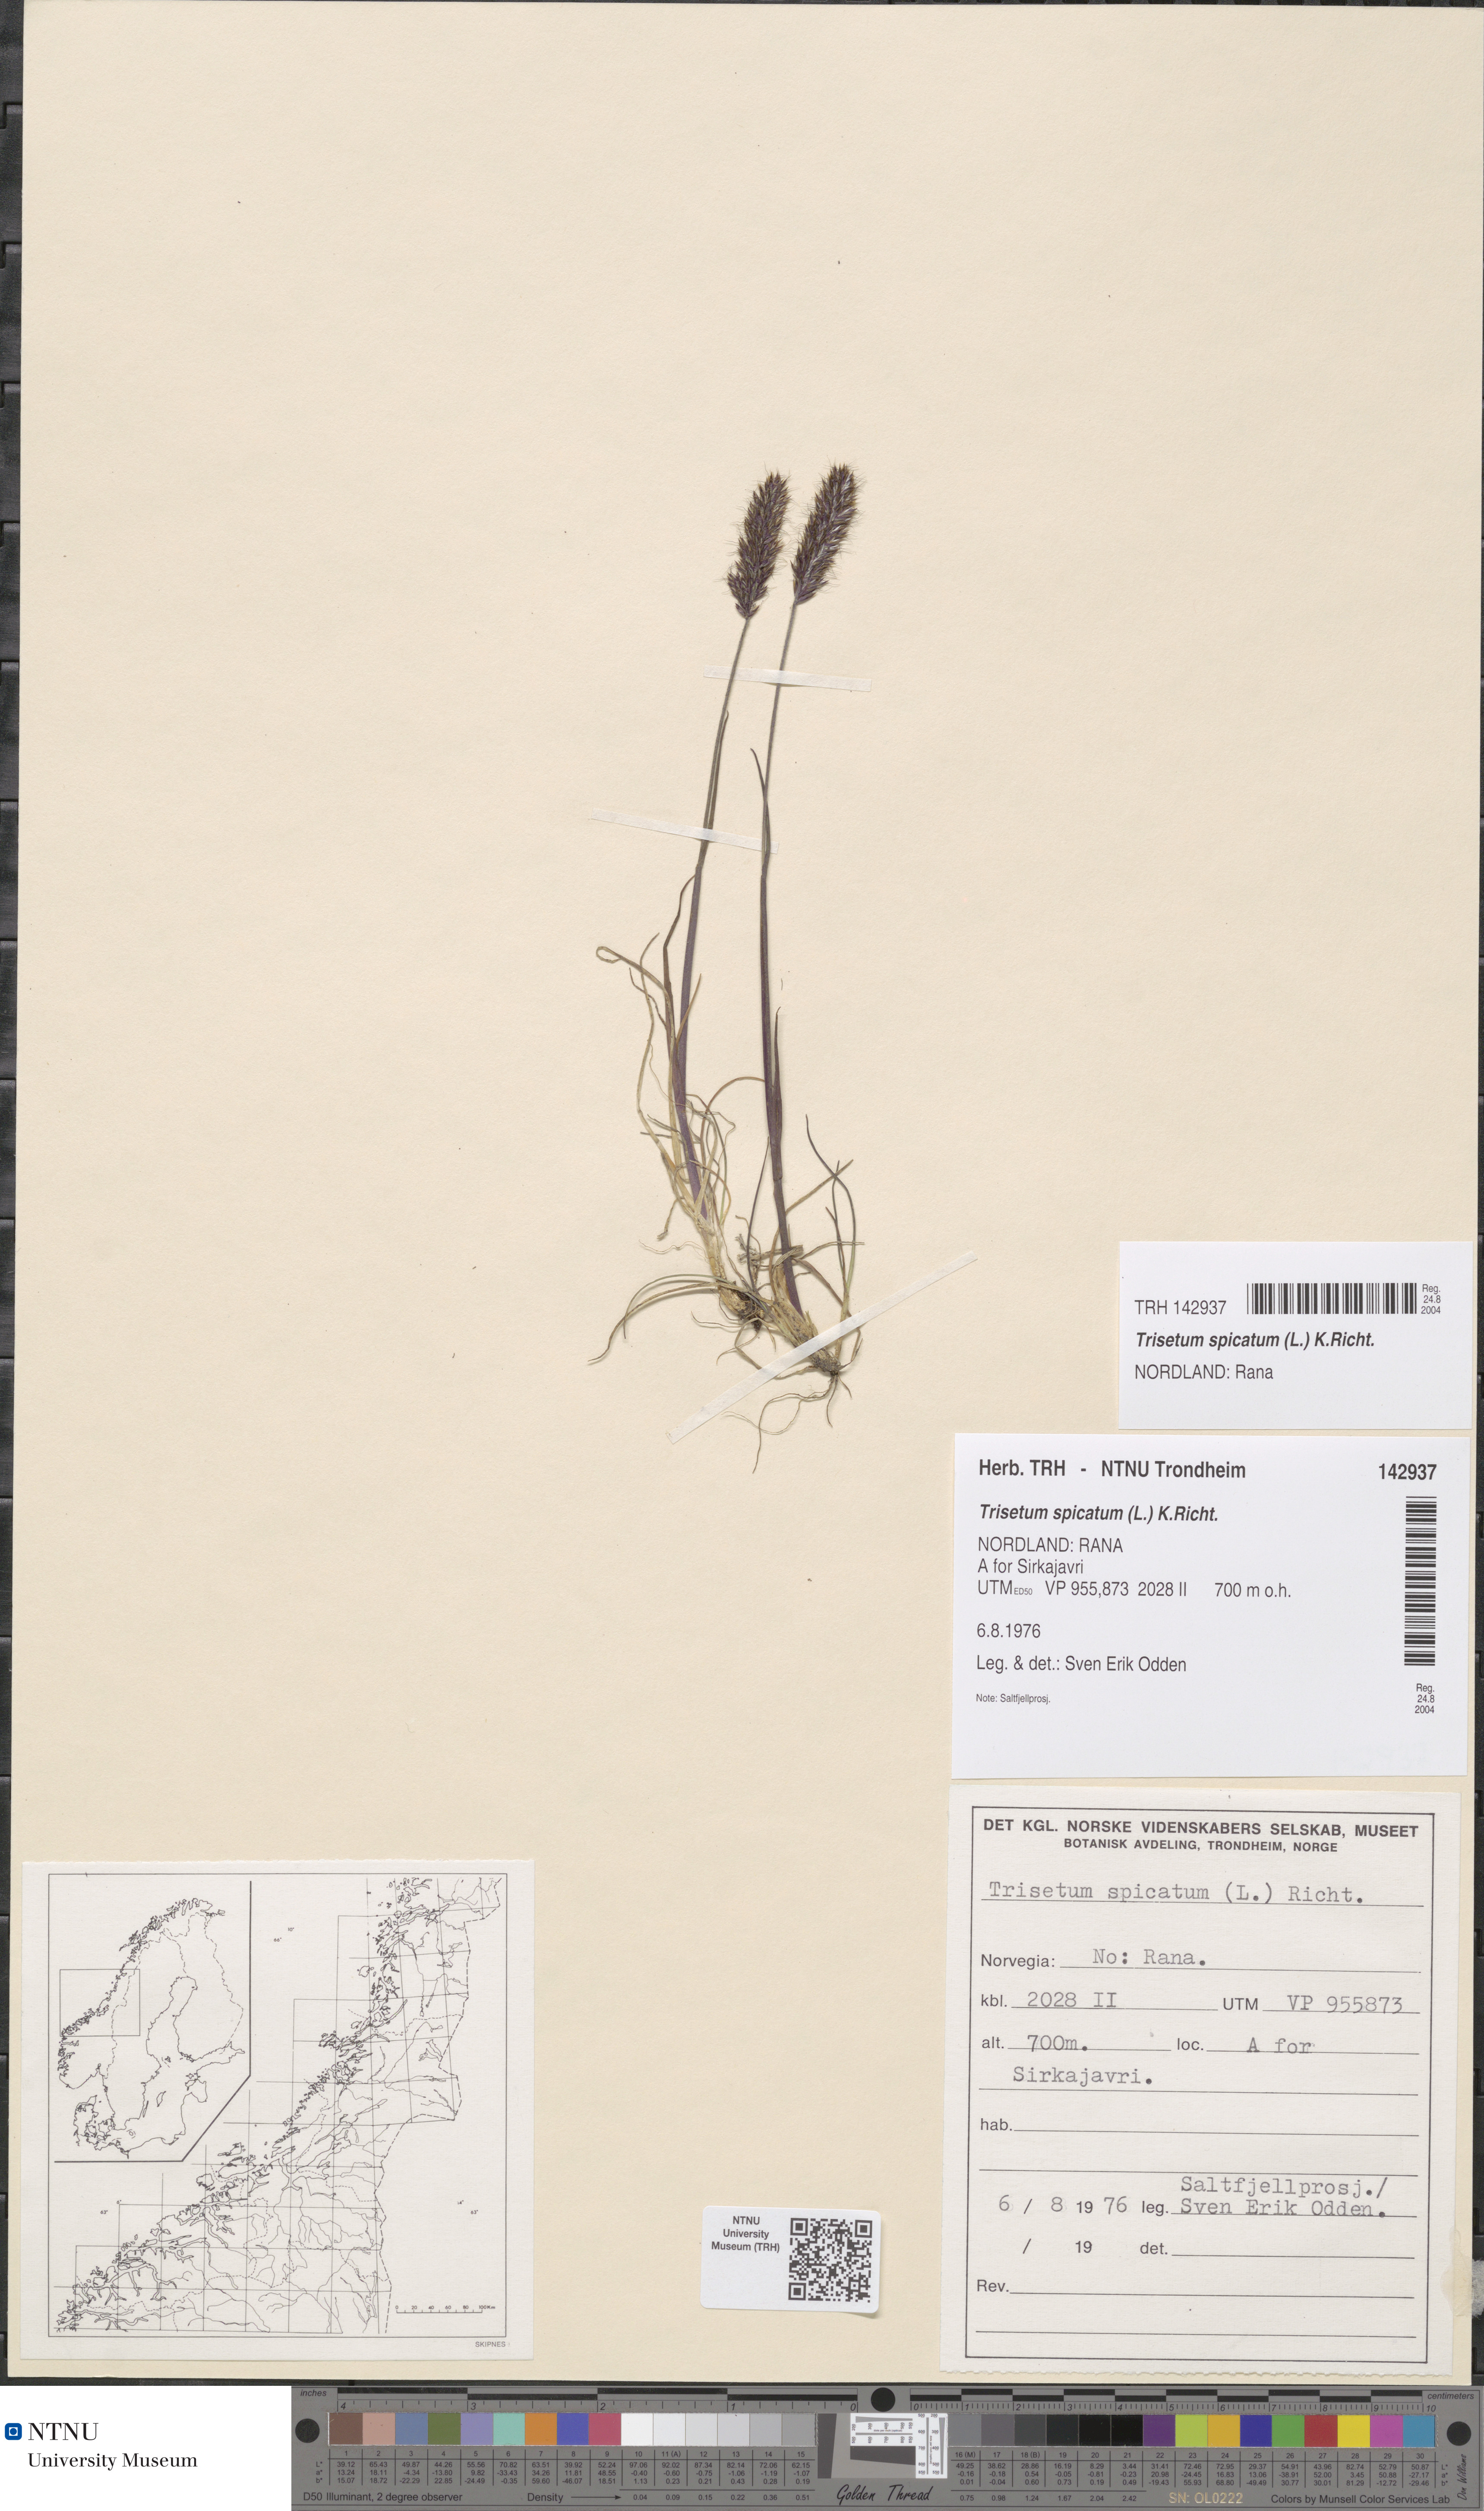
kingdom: Plantae
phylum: Tracheophyta
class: Liliopsida
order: Poales
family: Poaceae
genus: Koeleria
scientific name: Koeleria spicata
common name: Mountain trisetum
